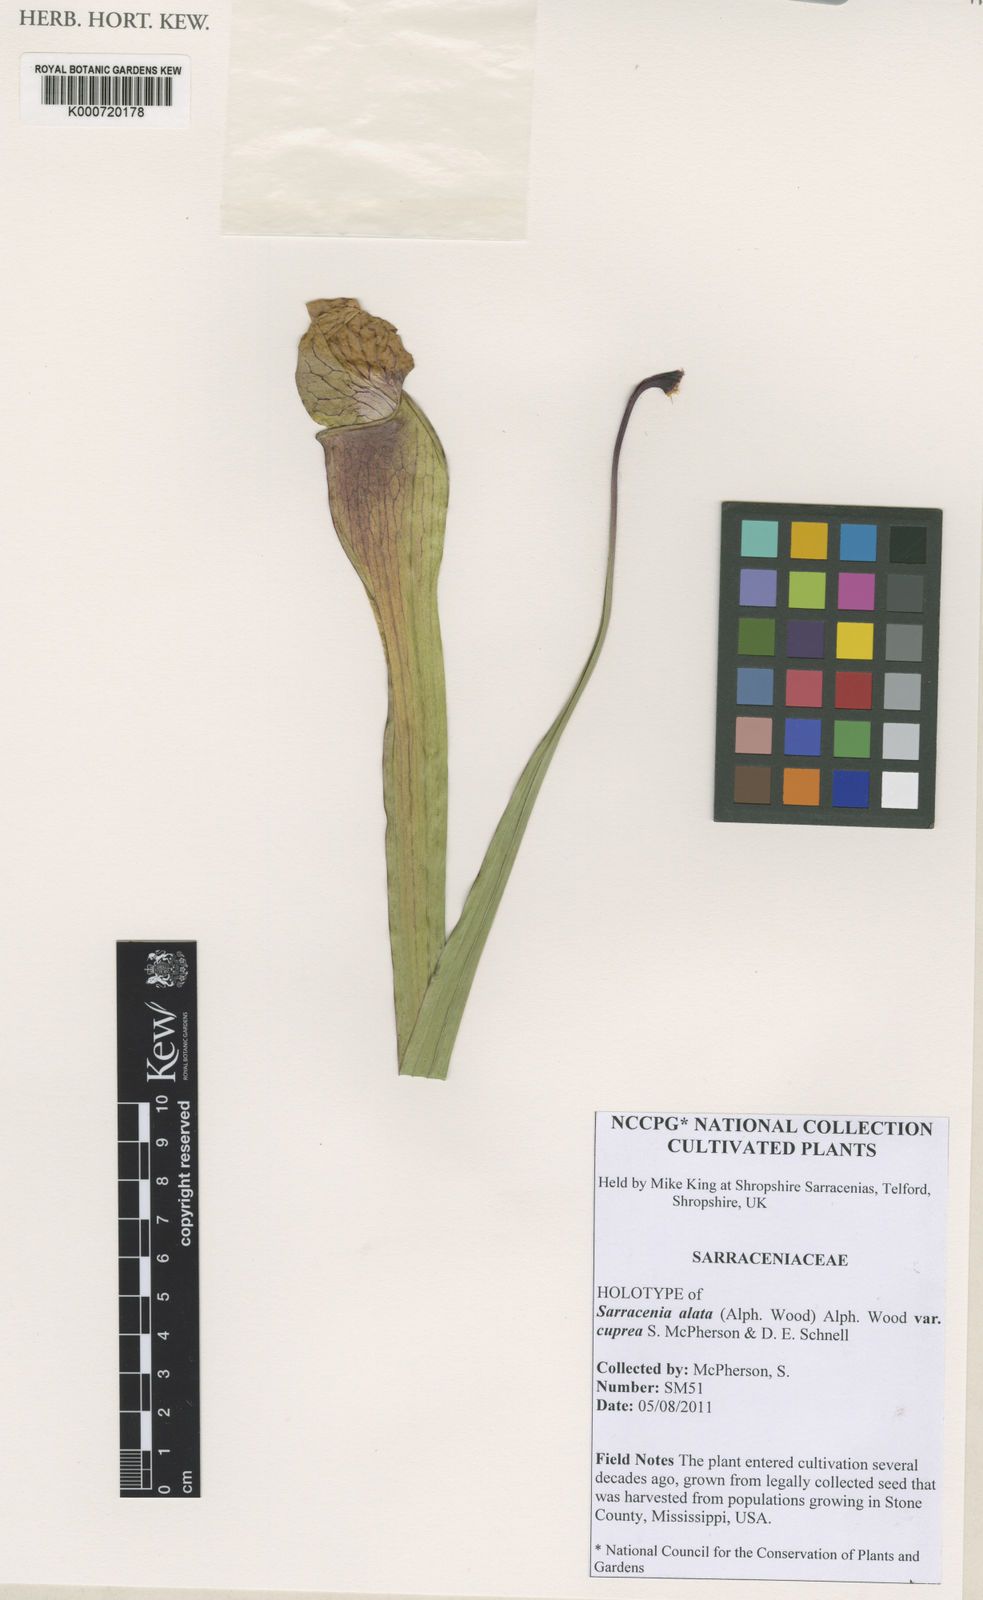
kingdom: Plantae
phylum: Tracheophyta
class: Magnoliopsida
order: Ericales
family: Sarraceniaceae
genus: Sarracenia
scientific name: Sarracenia alata
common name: Yellow trumpets
